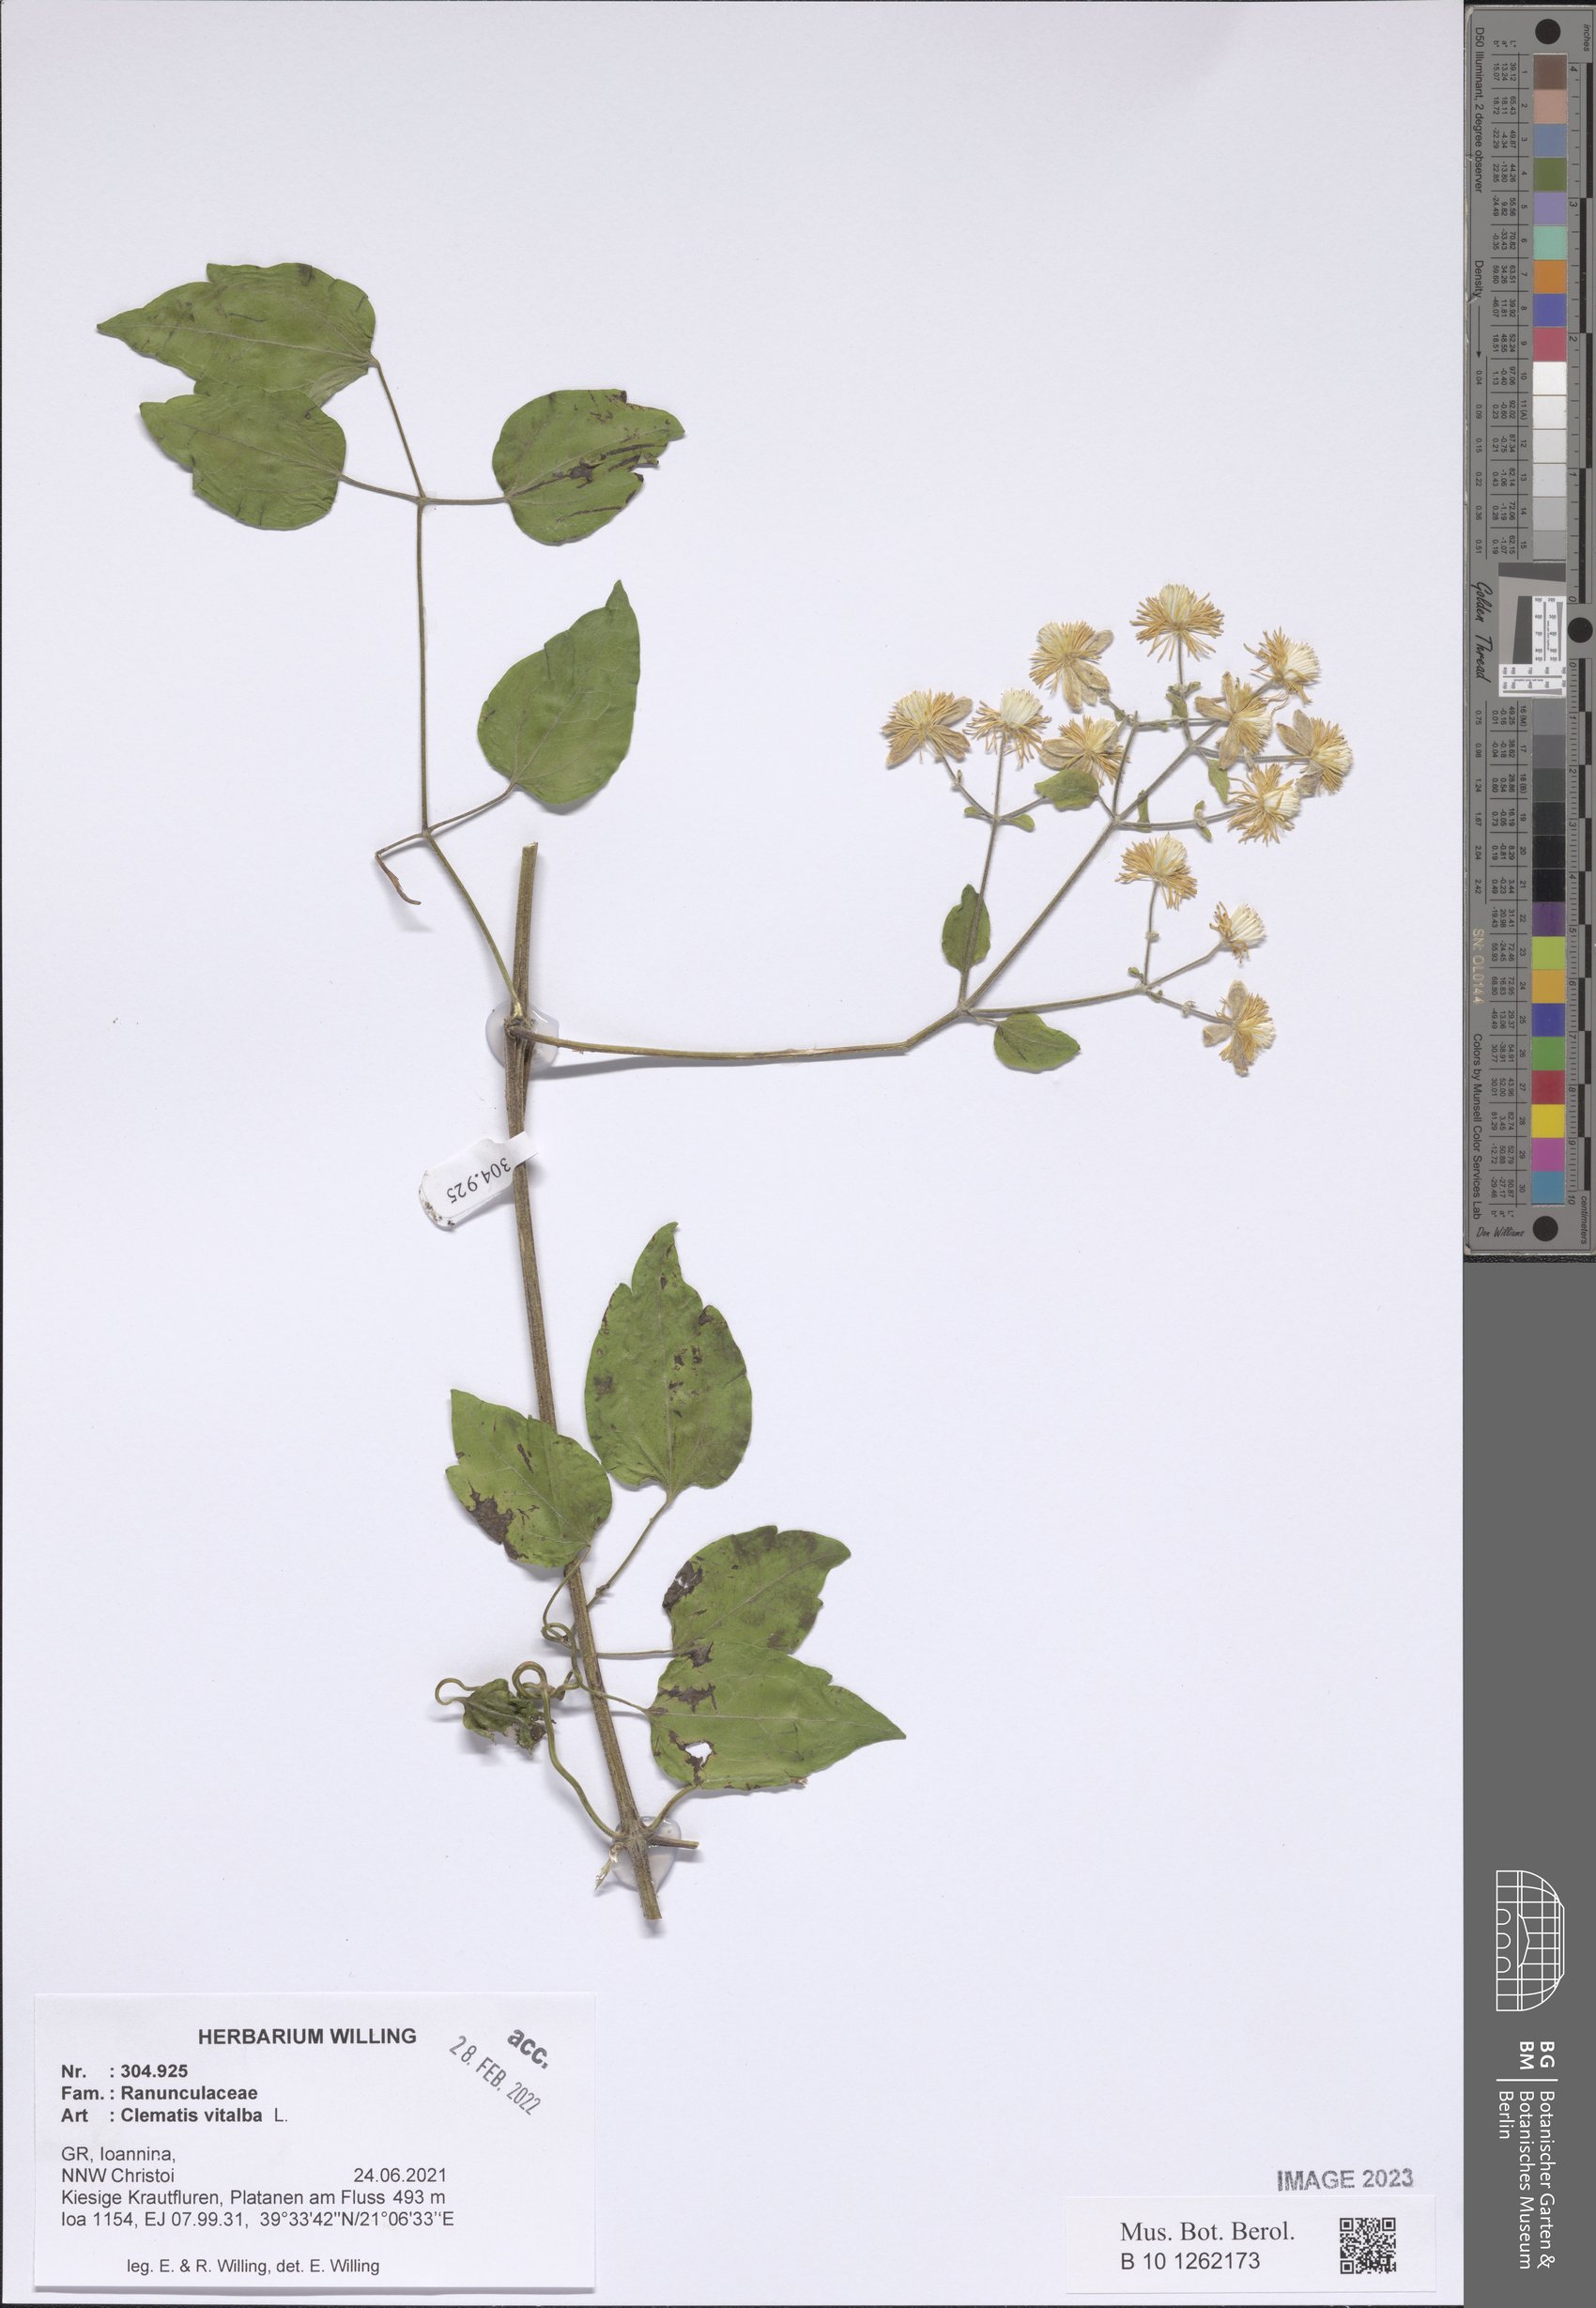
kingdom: Plantae
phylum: Tracheophyta
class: Magnoliopsida
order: Ranunculales
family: Ranunculaceae
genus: Clematis
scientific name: Clematis vitalba
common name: Evergreen clematis
